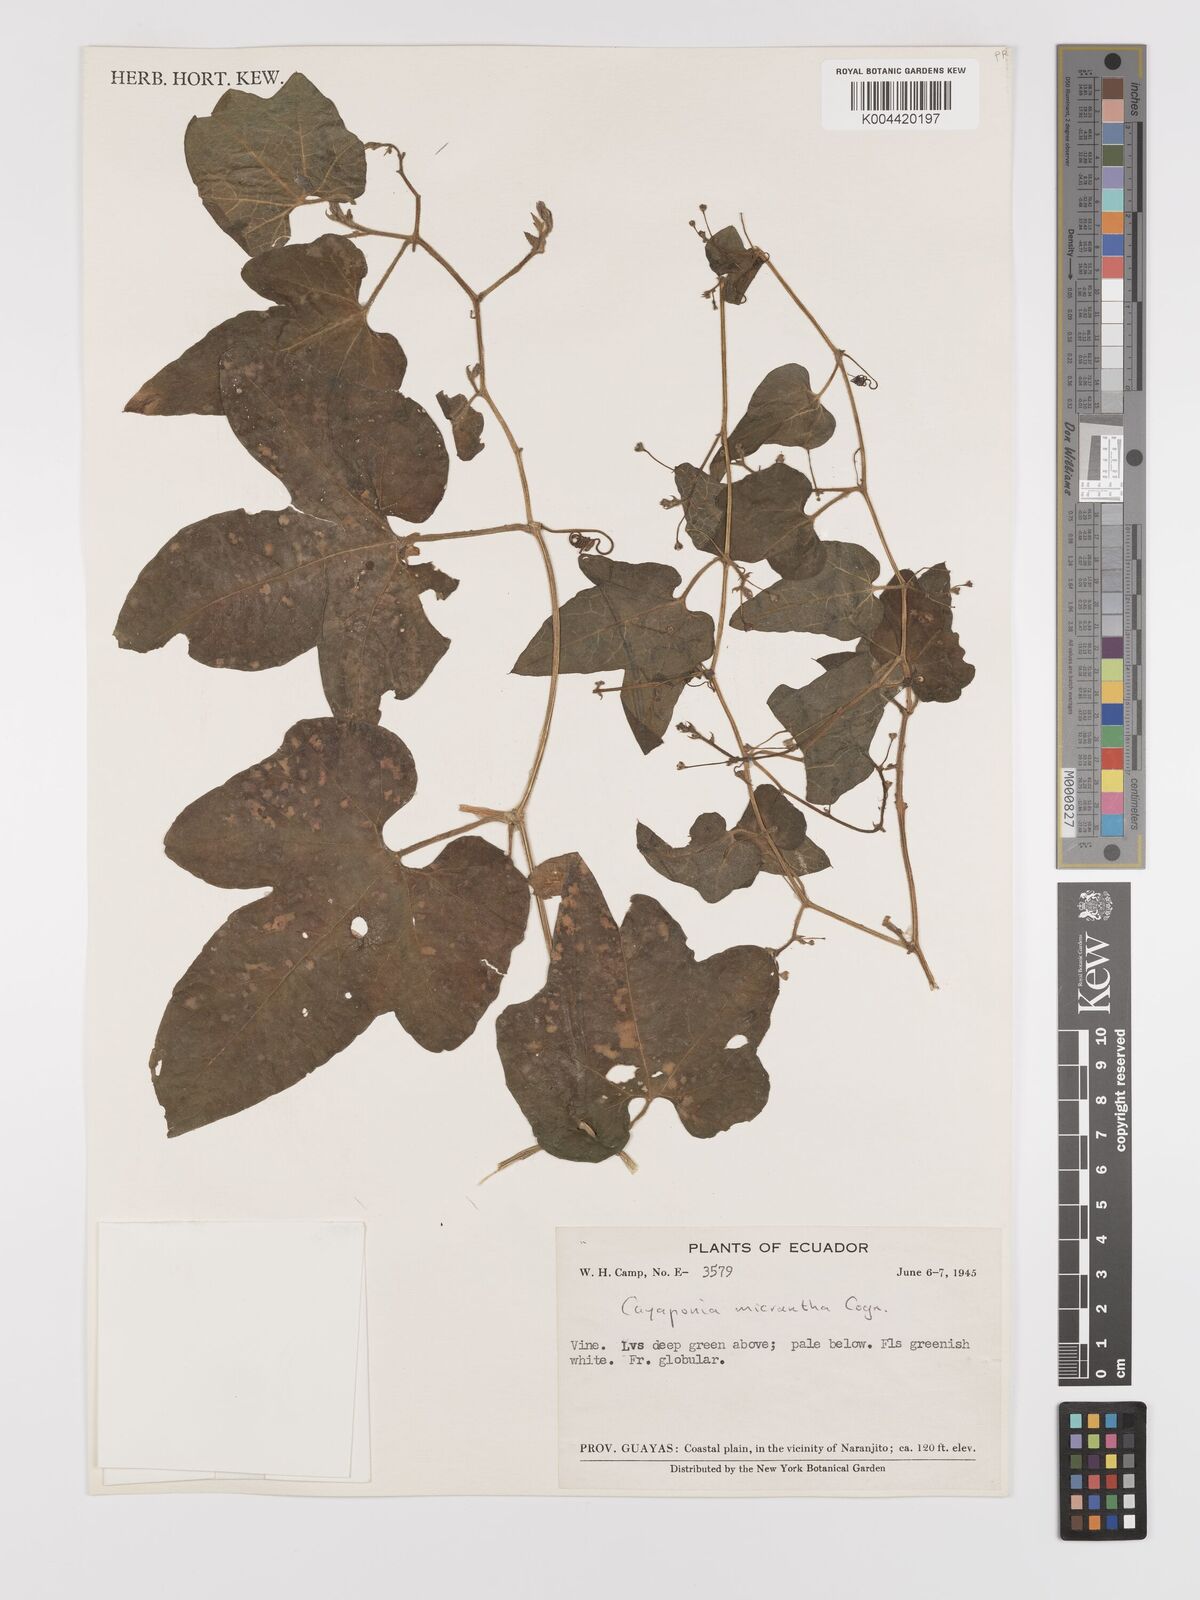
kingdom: Plantae
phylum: Tracheophyta
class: Magnoliopsida
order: Cucurbitales
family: Cucurbitaceae
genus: Cayaponia
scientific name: Cayaponia triangularis
